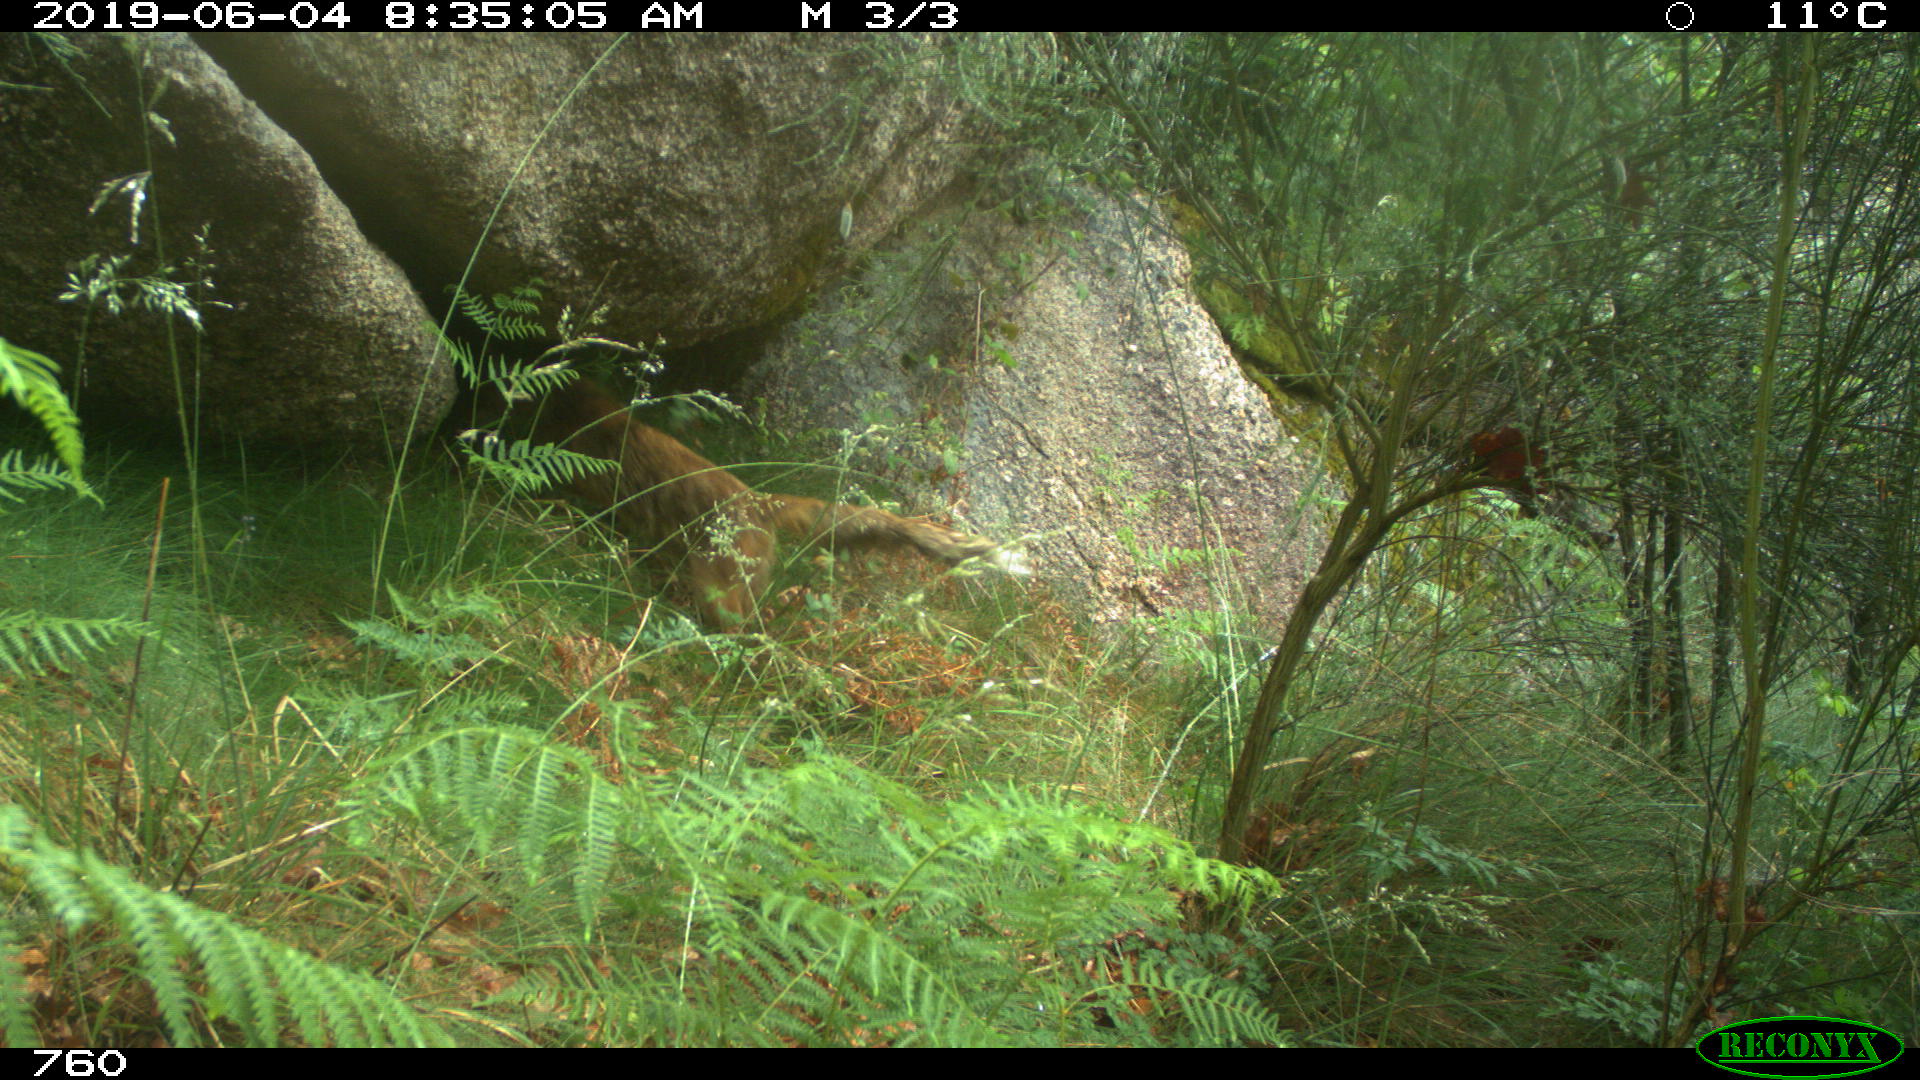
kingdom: Animalia
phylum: Chordata
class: Mammalia
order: Carnivora
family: Canidae
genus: Vulpes
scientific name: Vulpes vulpes
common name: Red fox
